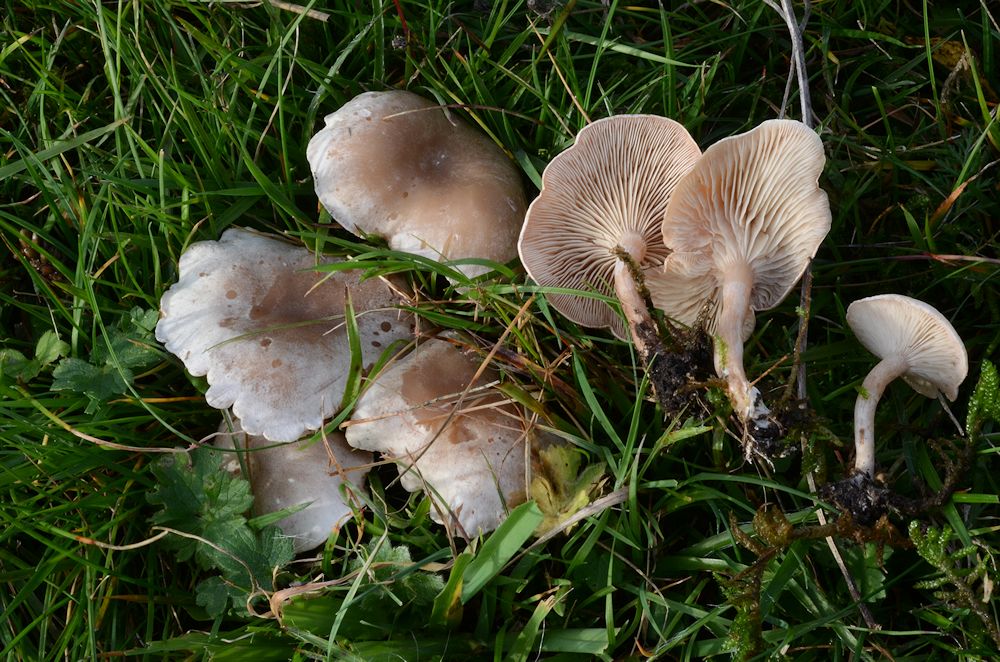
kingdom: Fungi
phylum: Basidiomycota
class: Agaricomycetes
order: Agaricales
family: Tricholomataceae
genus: Clitocybe
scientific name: Clitocybe rivulosa
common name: eng-tragthat
